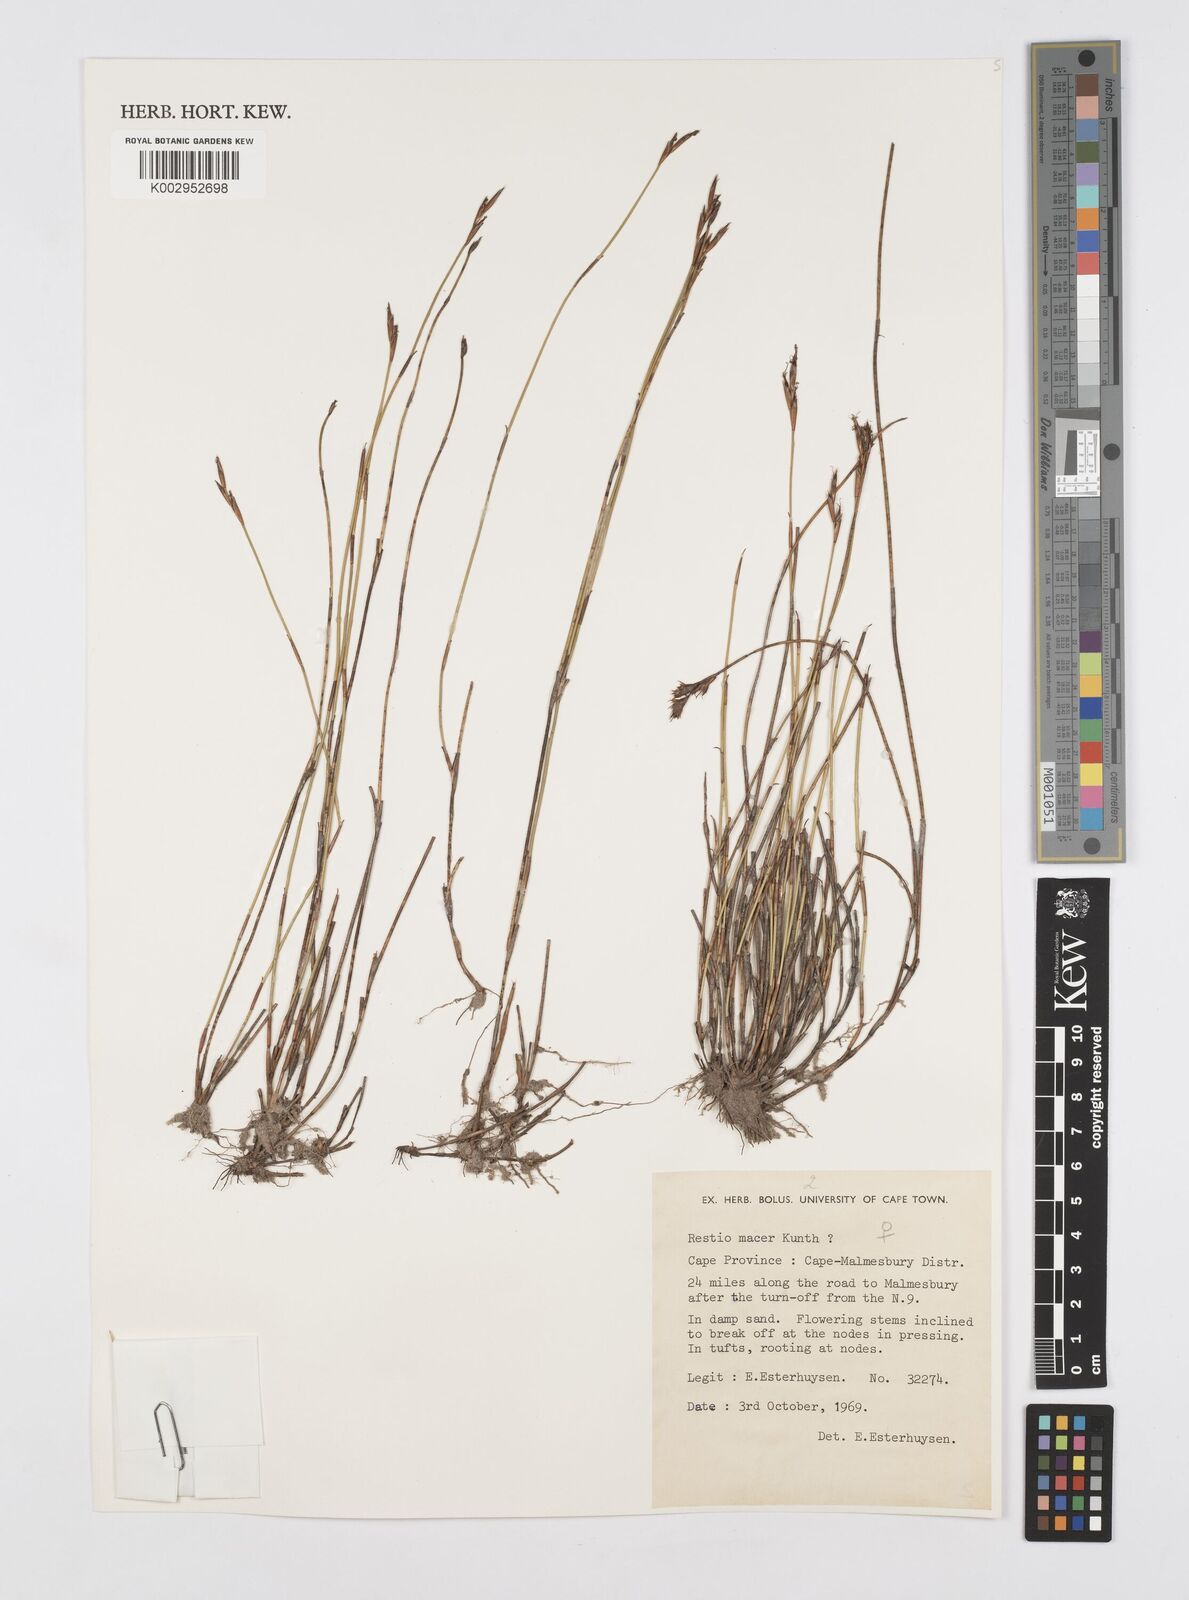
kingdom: Plantae
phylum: Tracheophyta
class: Liliopsida
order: Poales
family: Restionaceae
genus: Restio
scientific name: Restio macer
